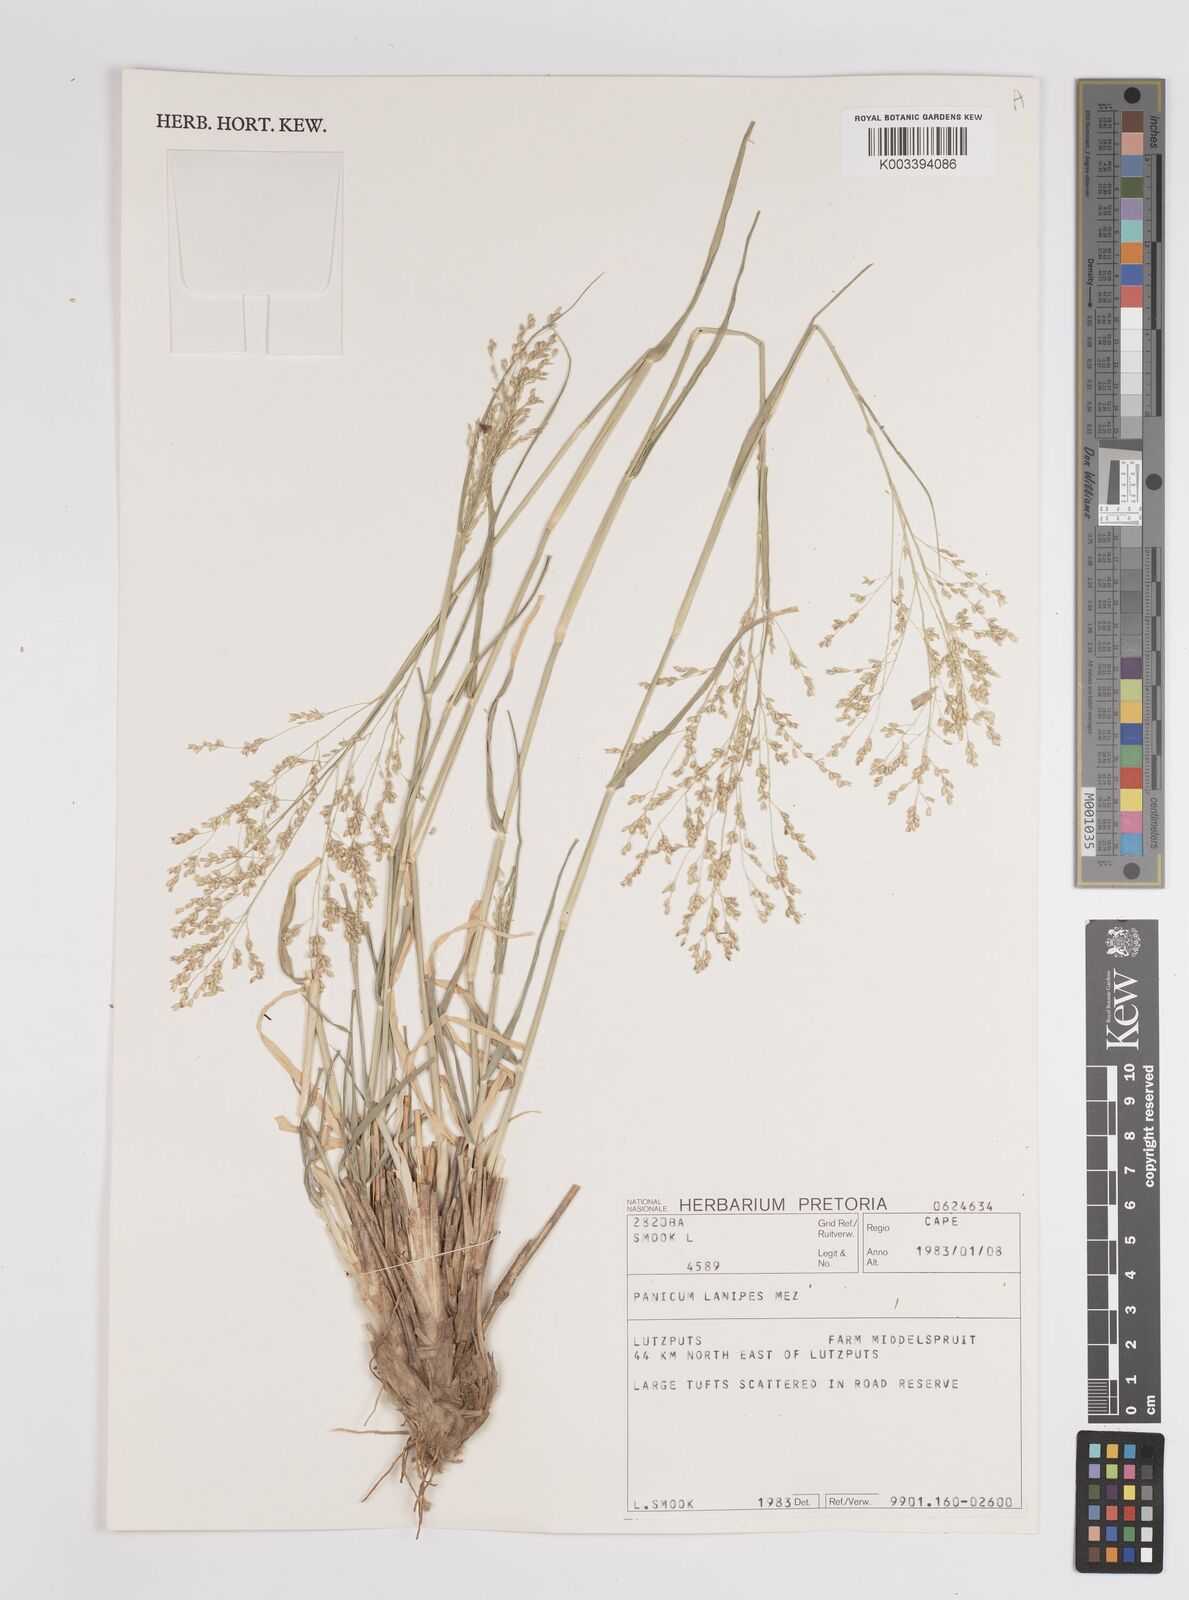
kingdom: Plantae
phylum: Tracheophyta
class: Liliopsida
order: Poales
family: Poaceae
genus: Panicum
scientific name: Panicum lanipes
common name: Wolvoet panicum
